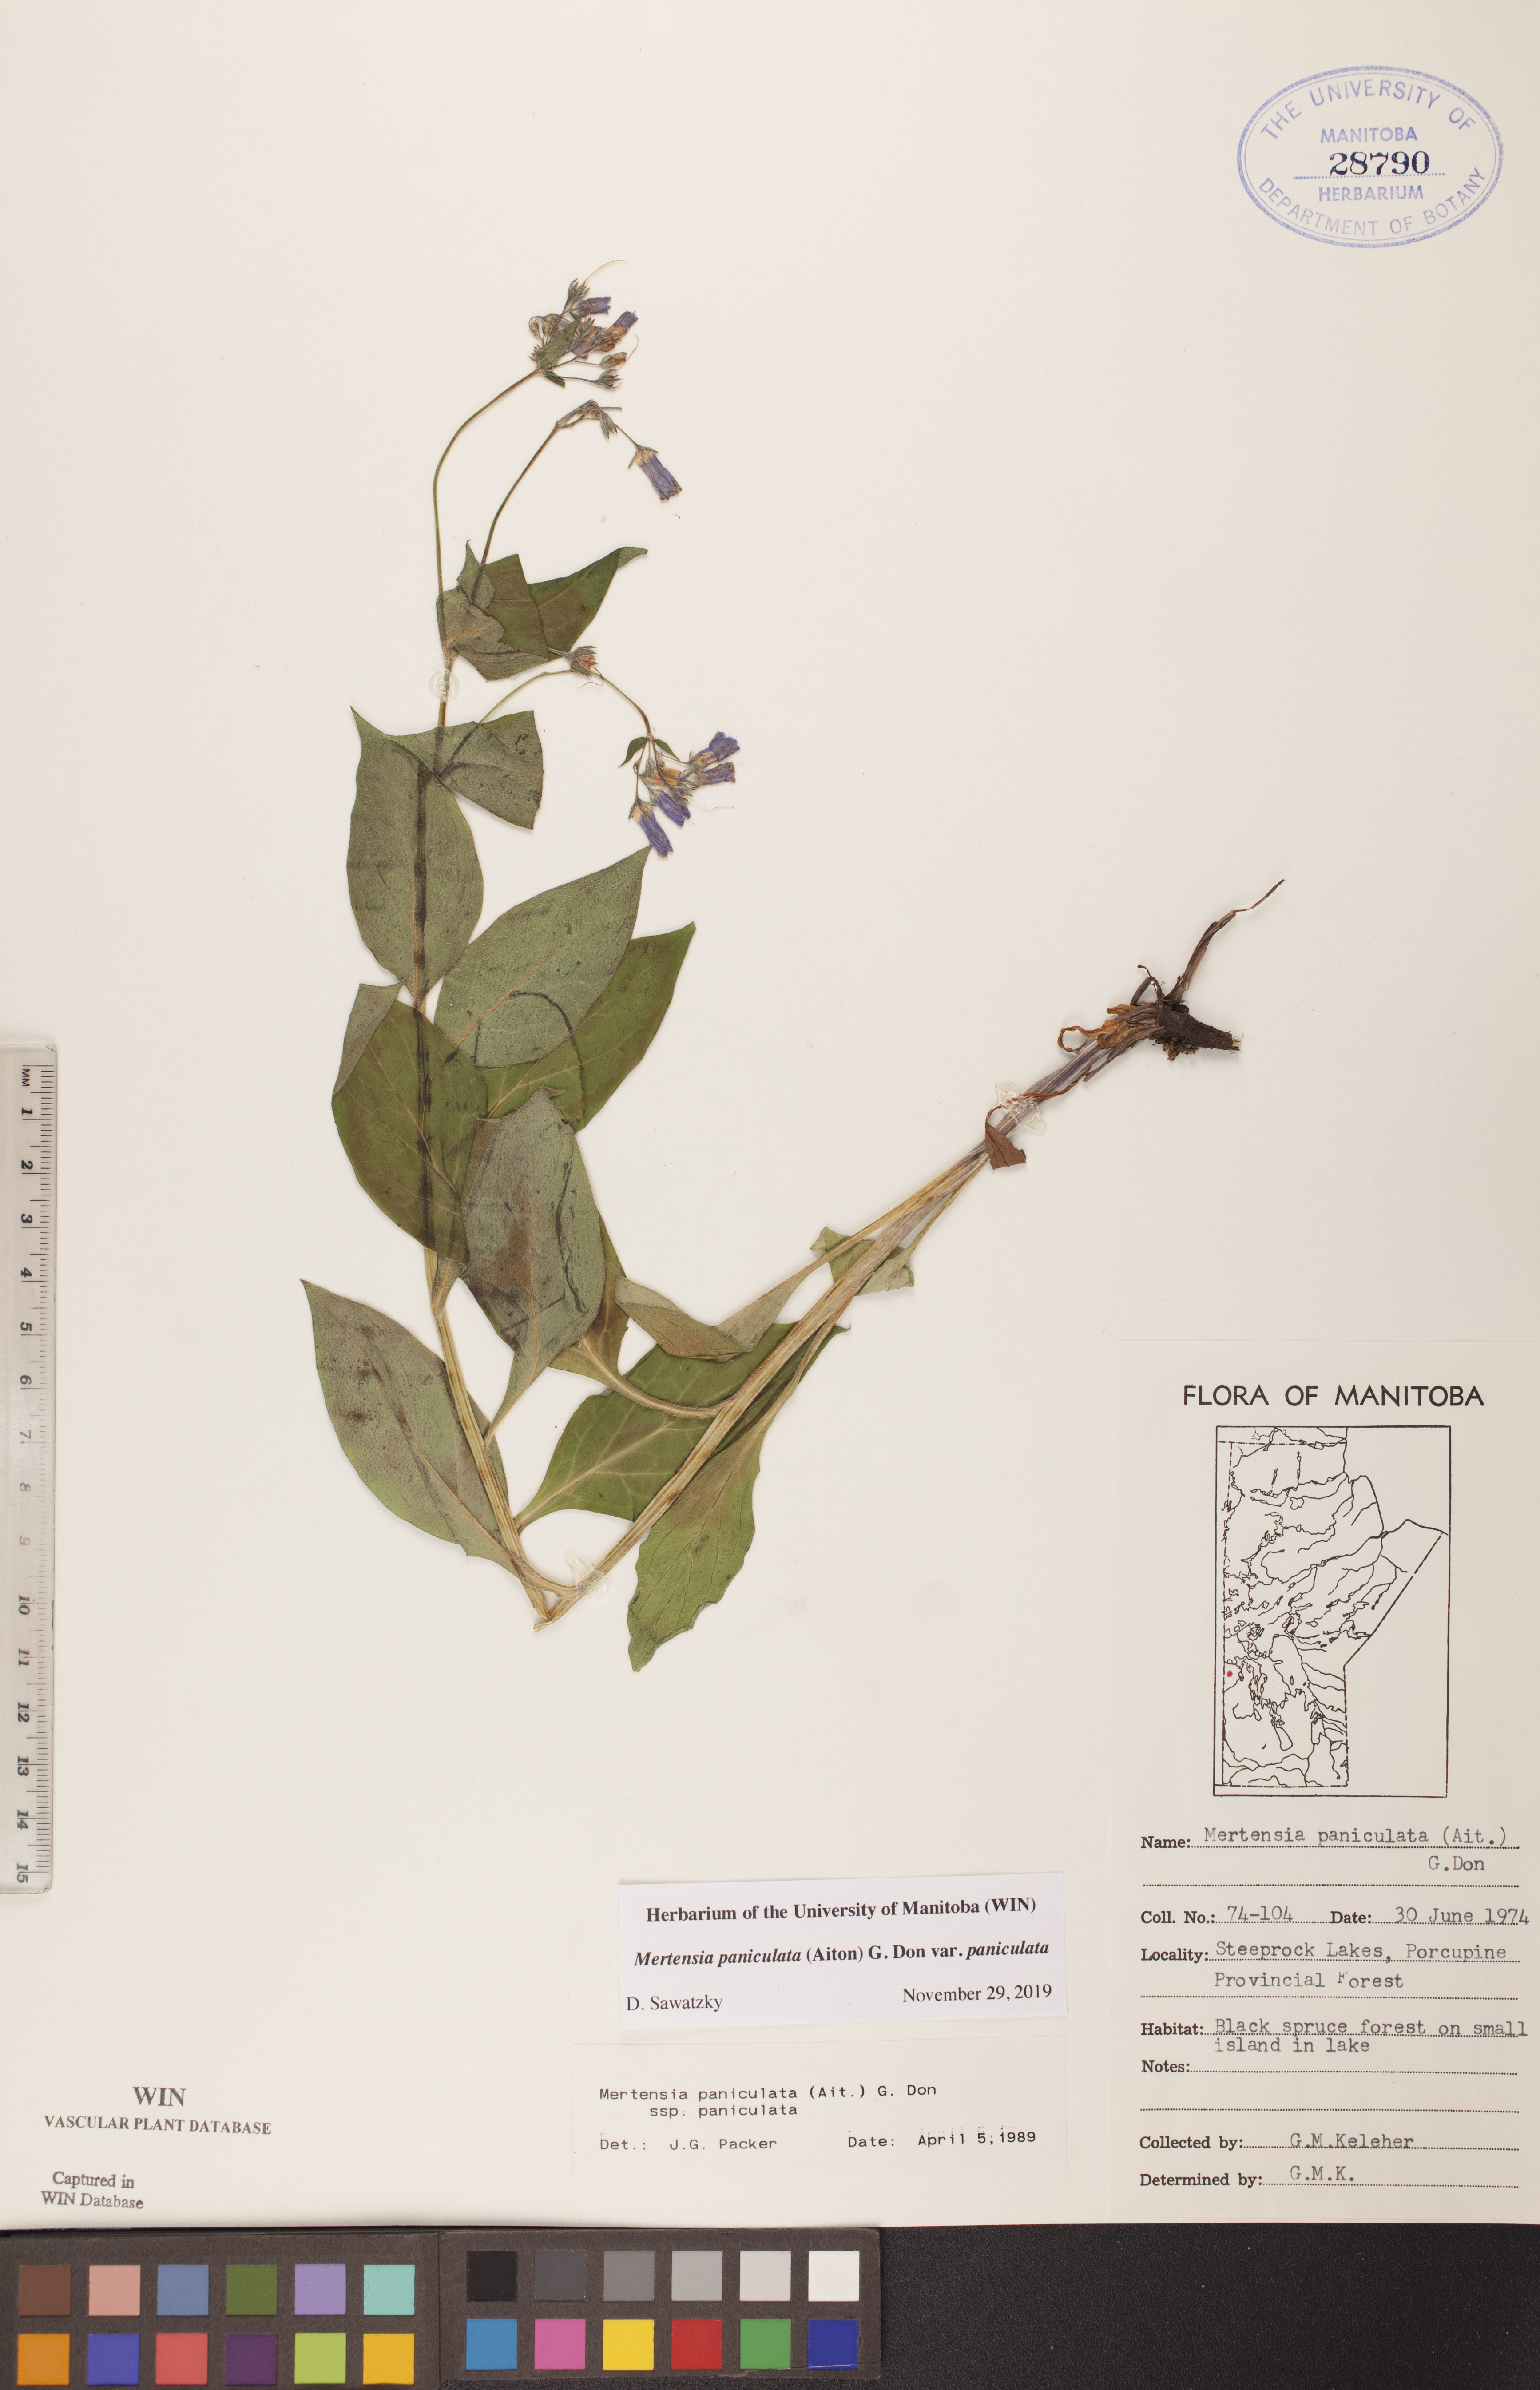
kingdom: Plantae
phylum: Tracheophyta
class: Magnoliopsida
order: Boraginales
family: Boraginaceae
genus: Mertensia
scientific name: Mertensia paniculata
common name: Panicled bluebells
